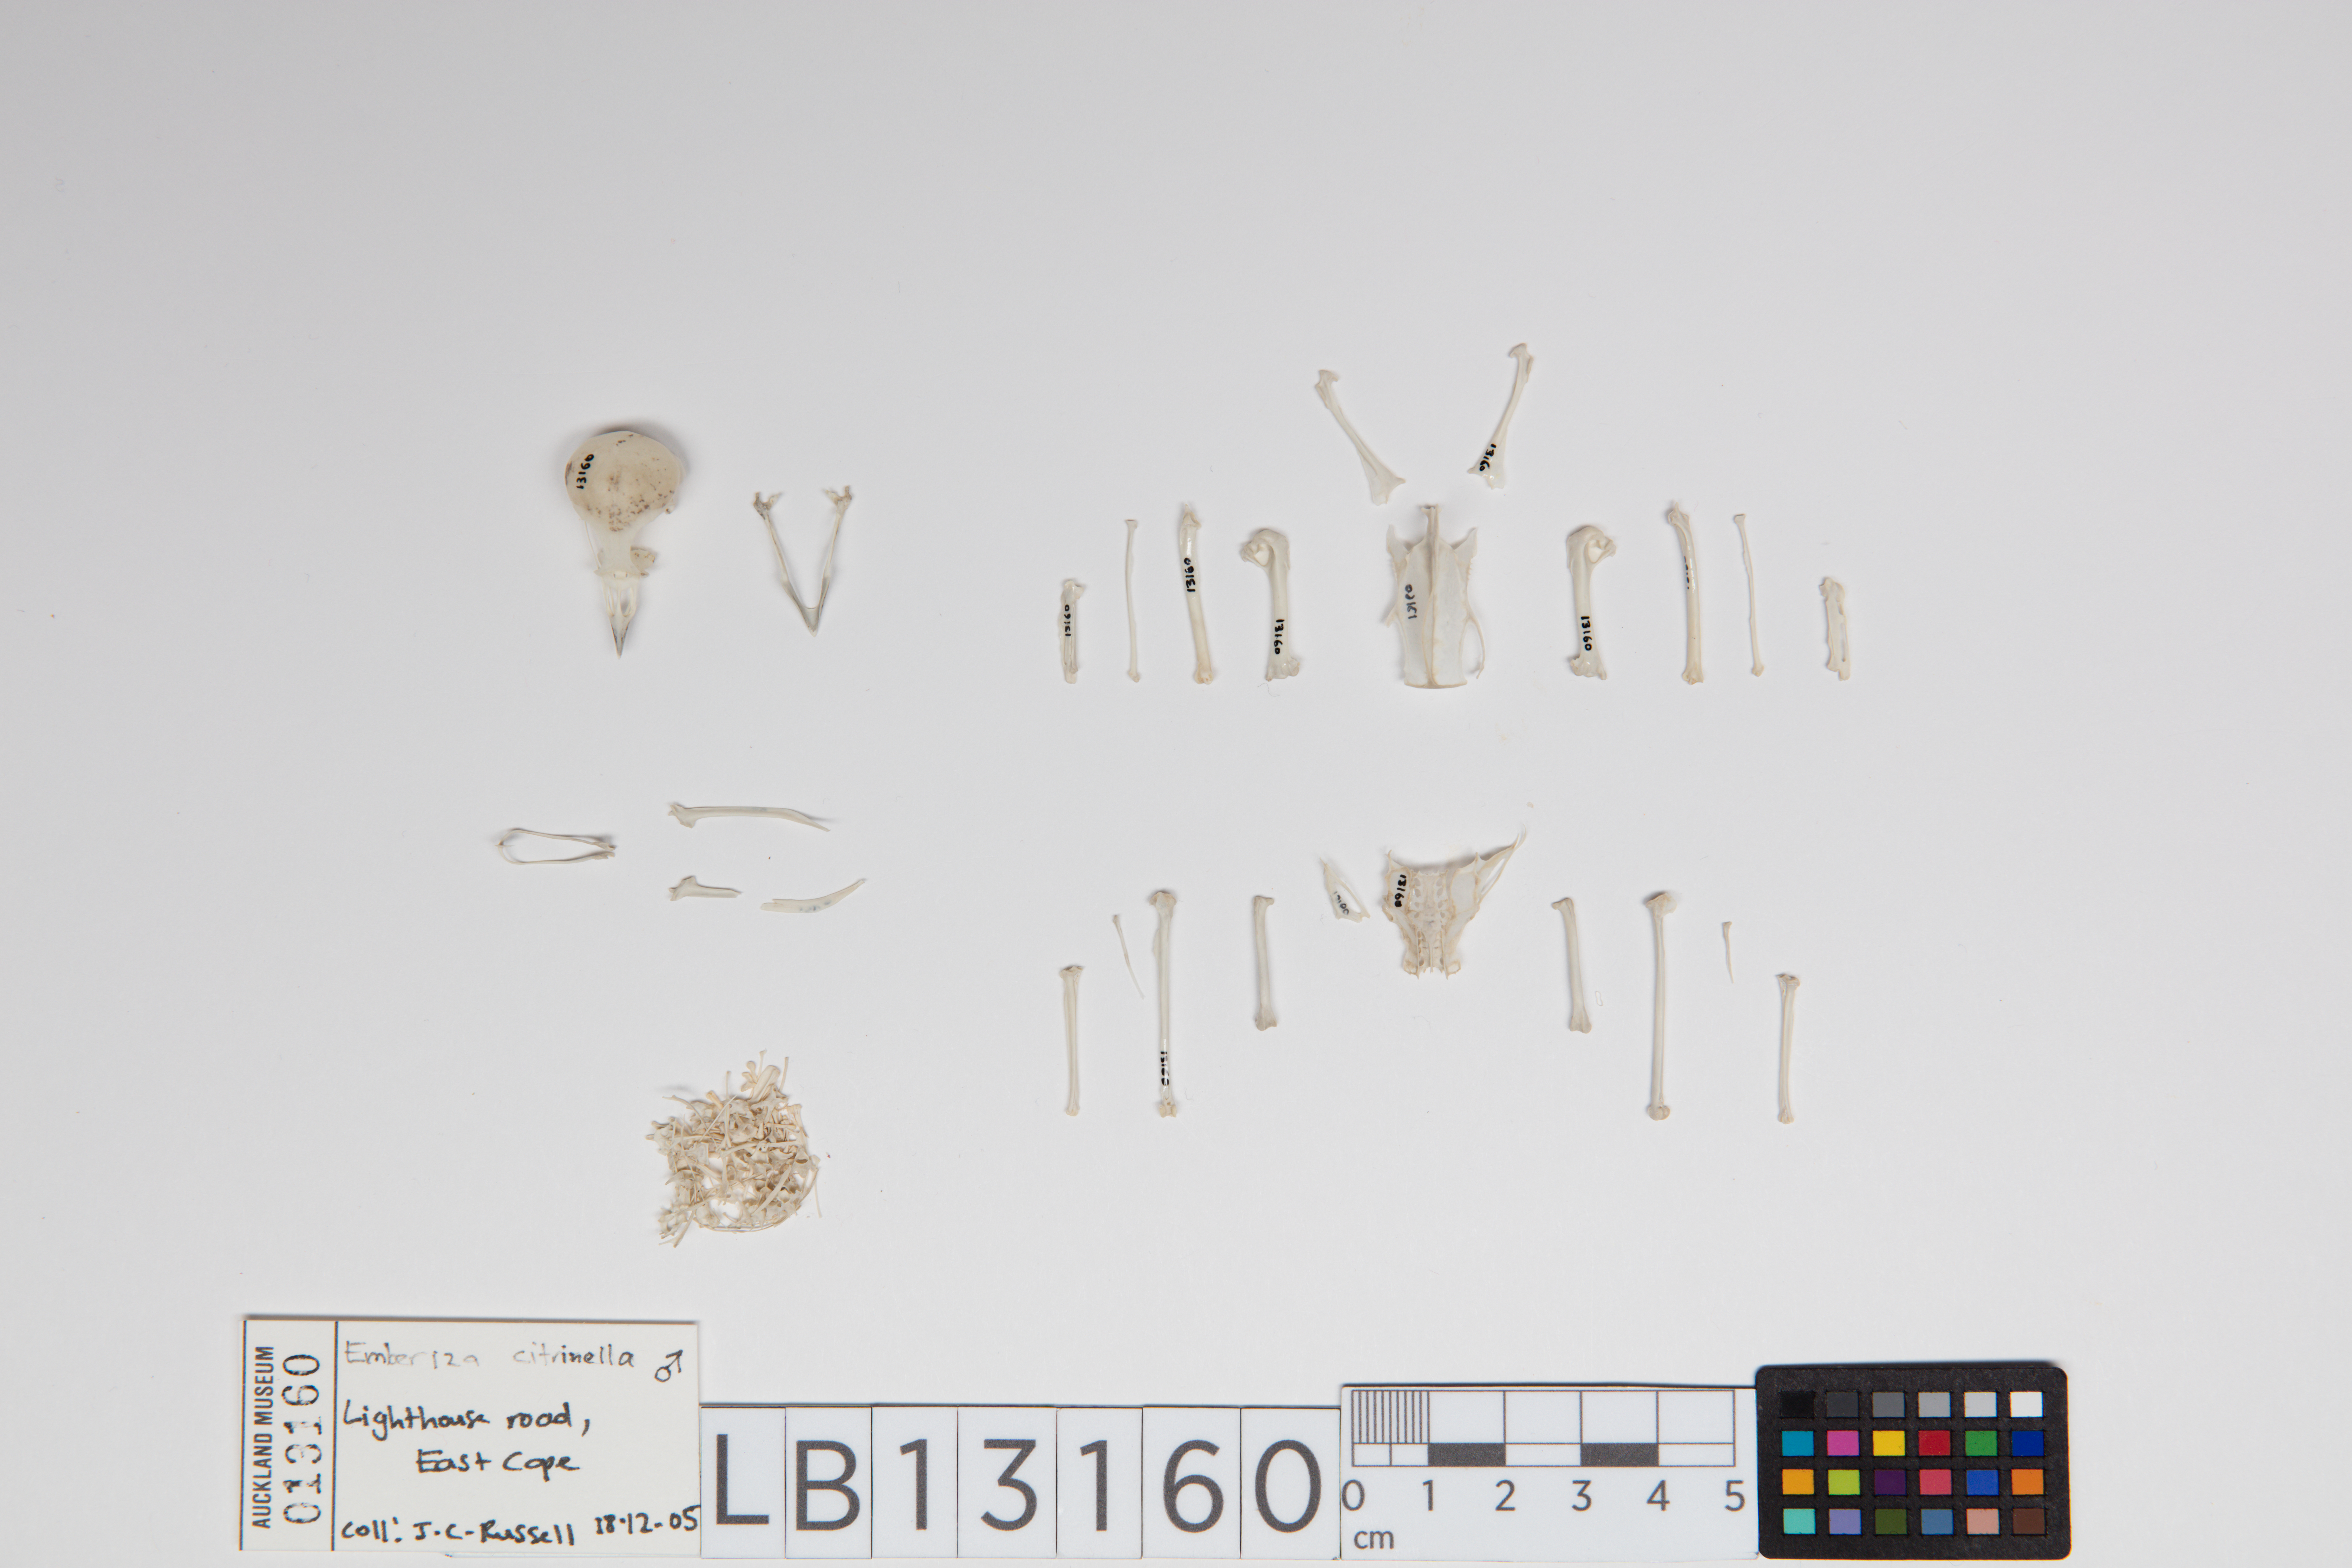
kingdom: Animalia
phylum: Chordata
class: Aves
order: Passeriformes
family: Emberizidae
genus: Emberiza
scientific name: Emberiza citrinella
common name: Yellowhammer
